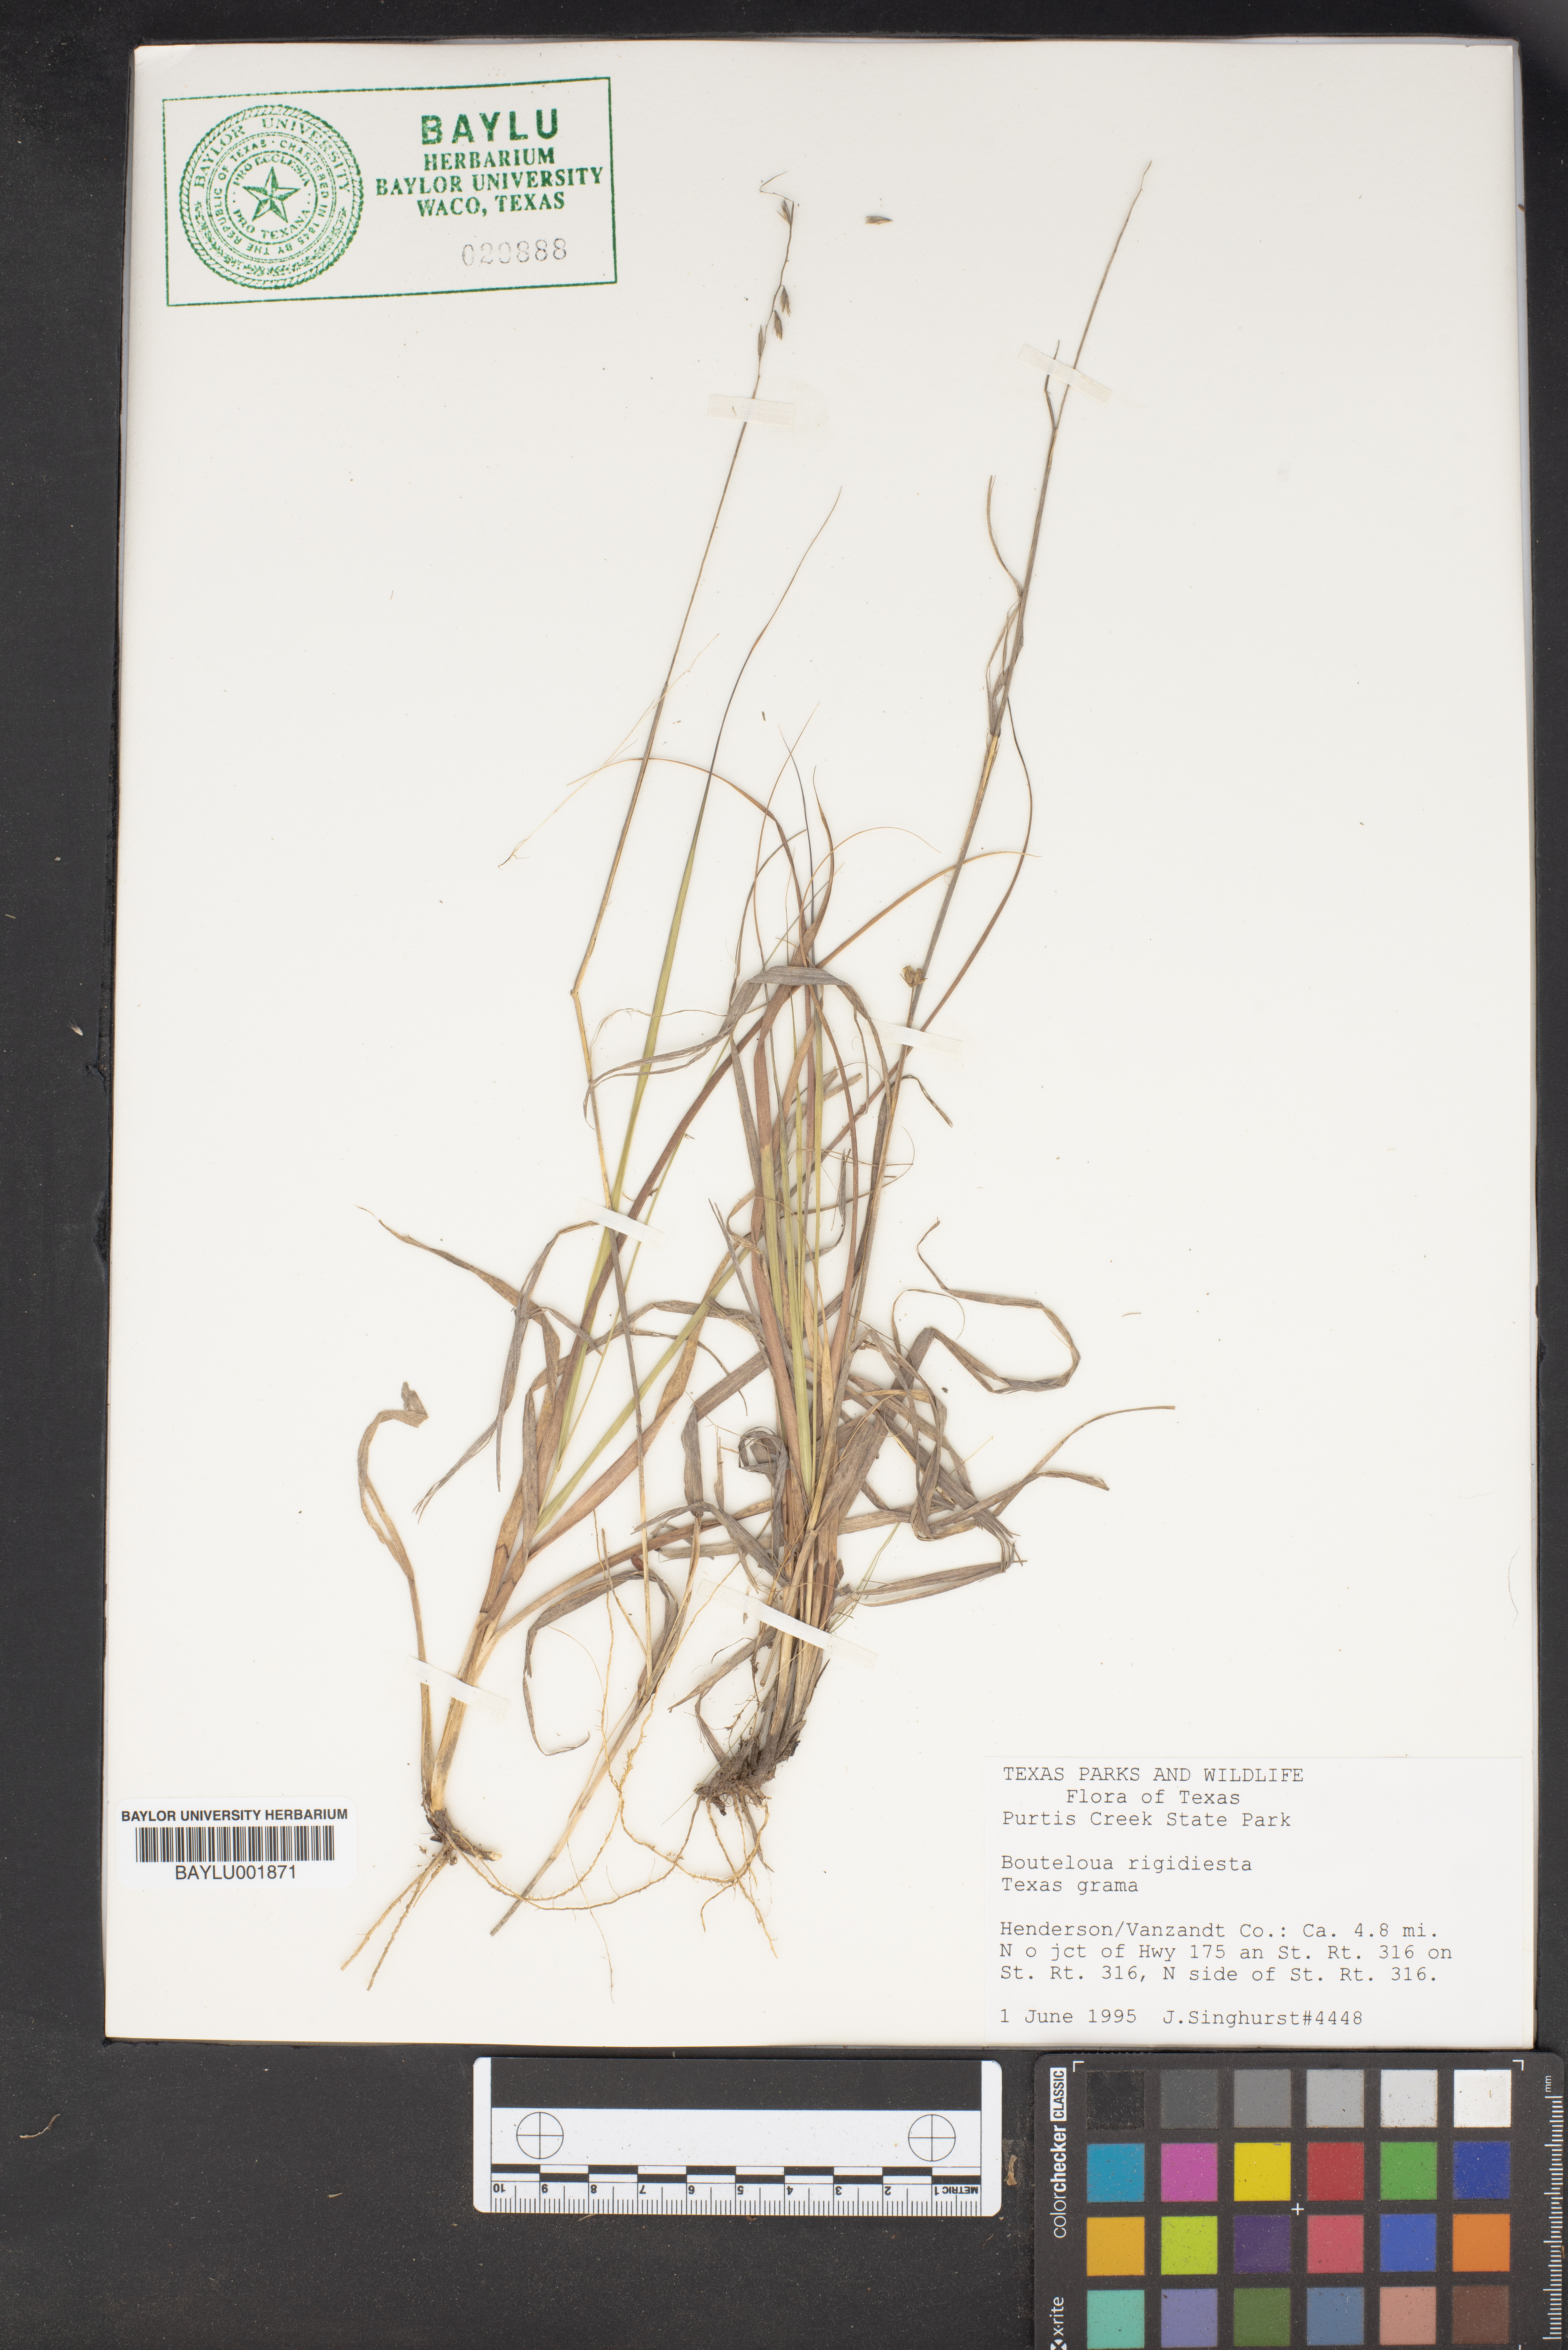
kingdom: Plantae
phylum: Tracheophyta
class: Liliopsida
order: Poales
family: Poaceae
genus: Bouteloua
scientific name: Bouteloua rigidiseta
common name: Texas grama
